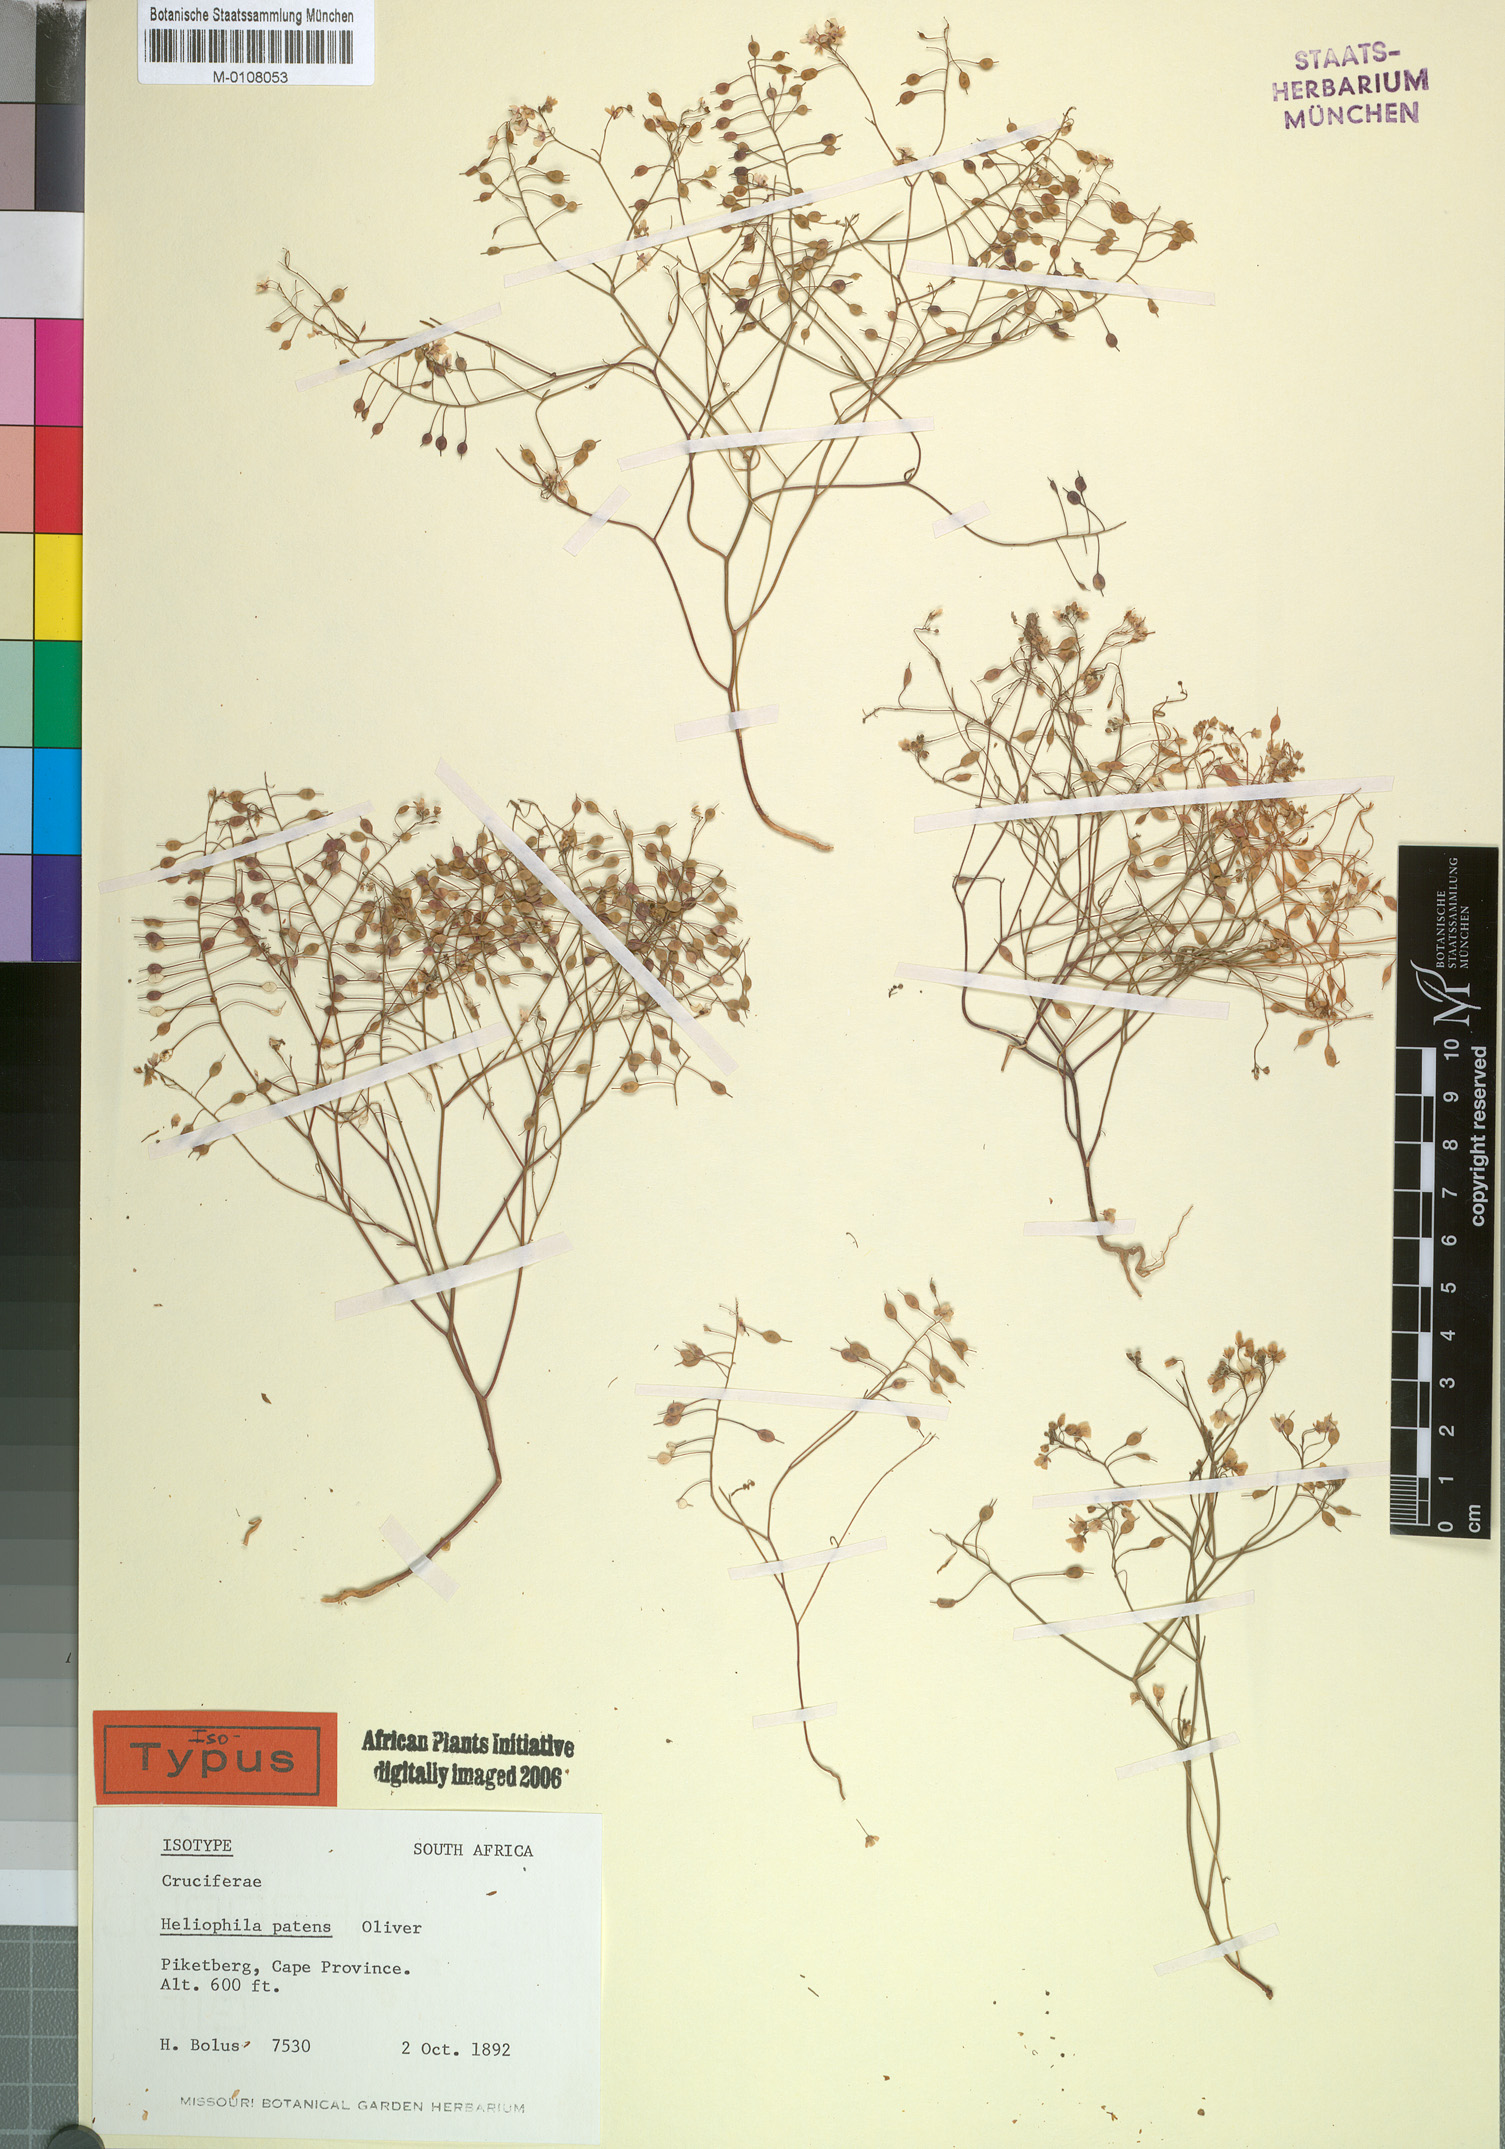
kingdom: Plantae
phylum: Tracheophyta
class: Magnoliopsida
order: Brassicales
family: Brassicaceae
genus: Heliophila
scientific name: Heliophila patens
